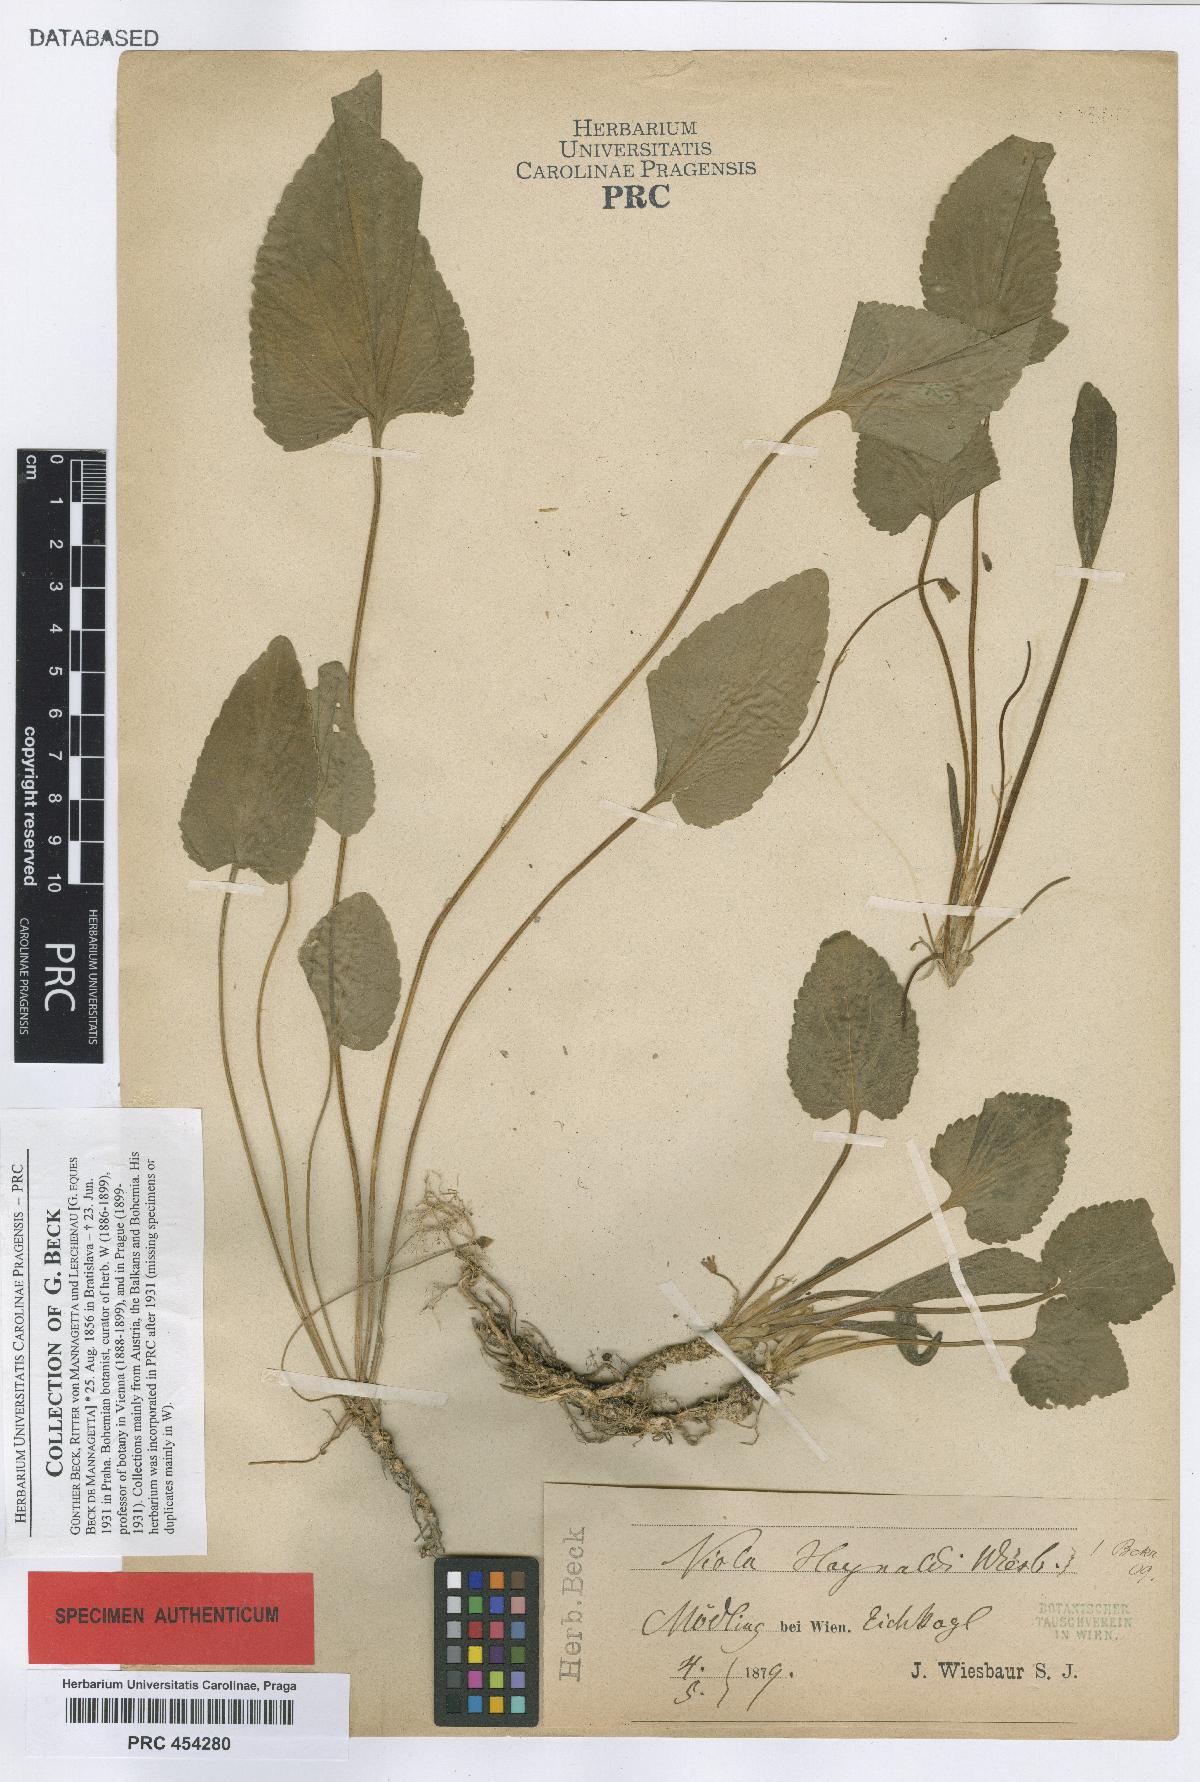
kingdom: Plantae
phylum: Tracheophyta
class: Magnoliopsida
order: Malpighiales
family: Violaceae
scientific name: Violaceae
